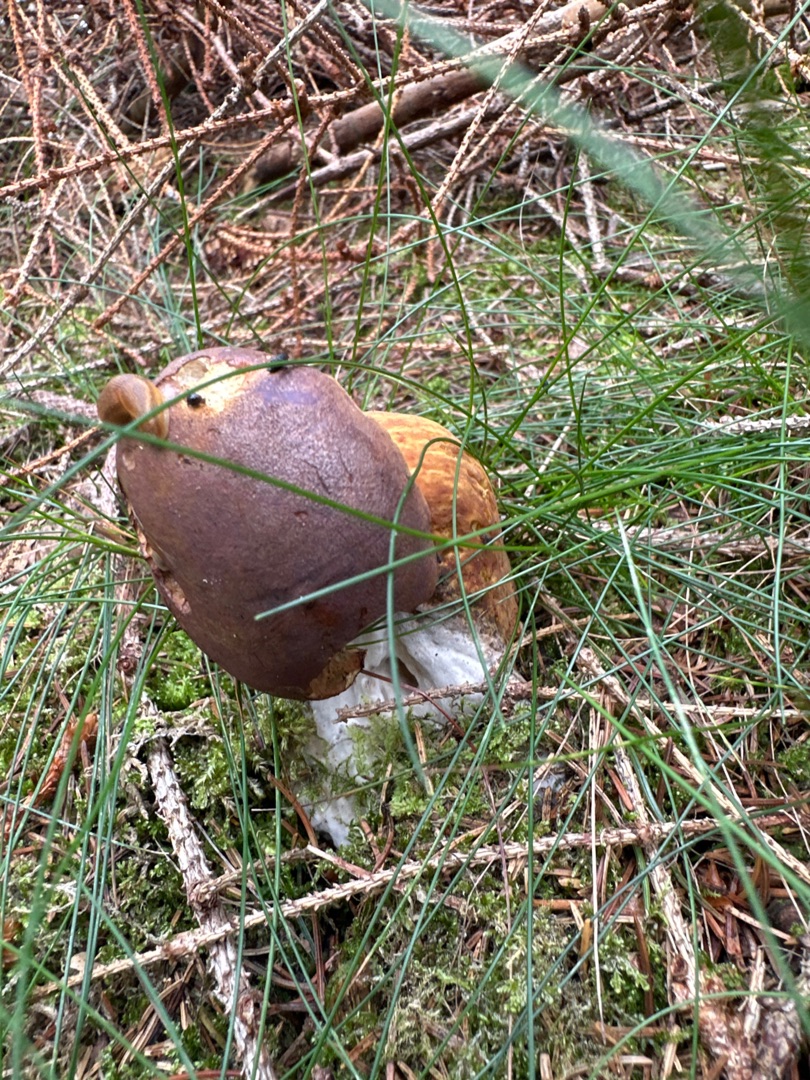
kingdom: Fungi
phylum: Basidiomycota
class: Agaricomycetes
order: Boletales
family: Boletaceae
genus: Imleria
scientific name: Imleria badia
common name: Brunstokket rørhat
